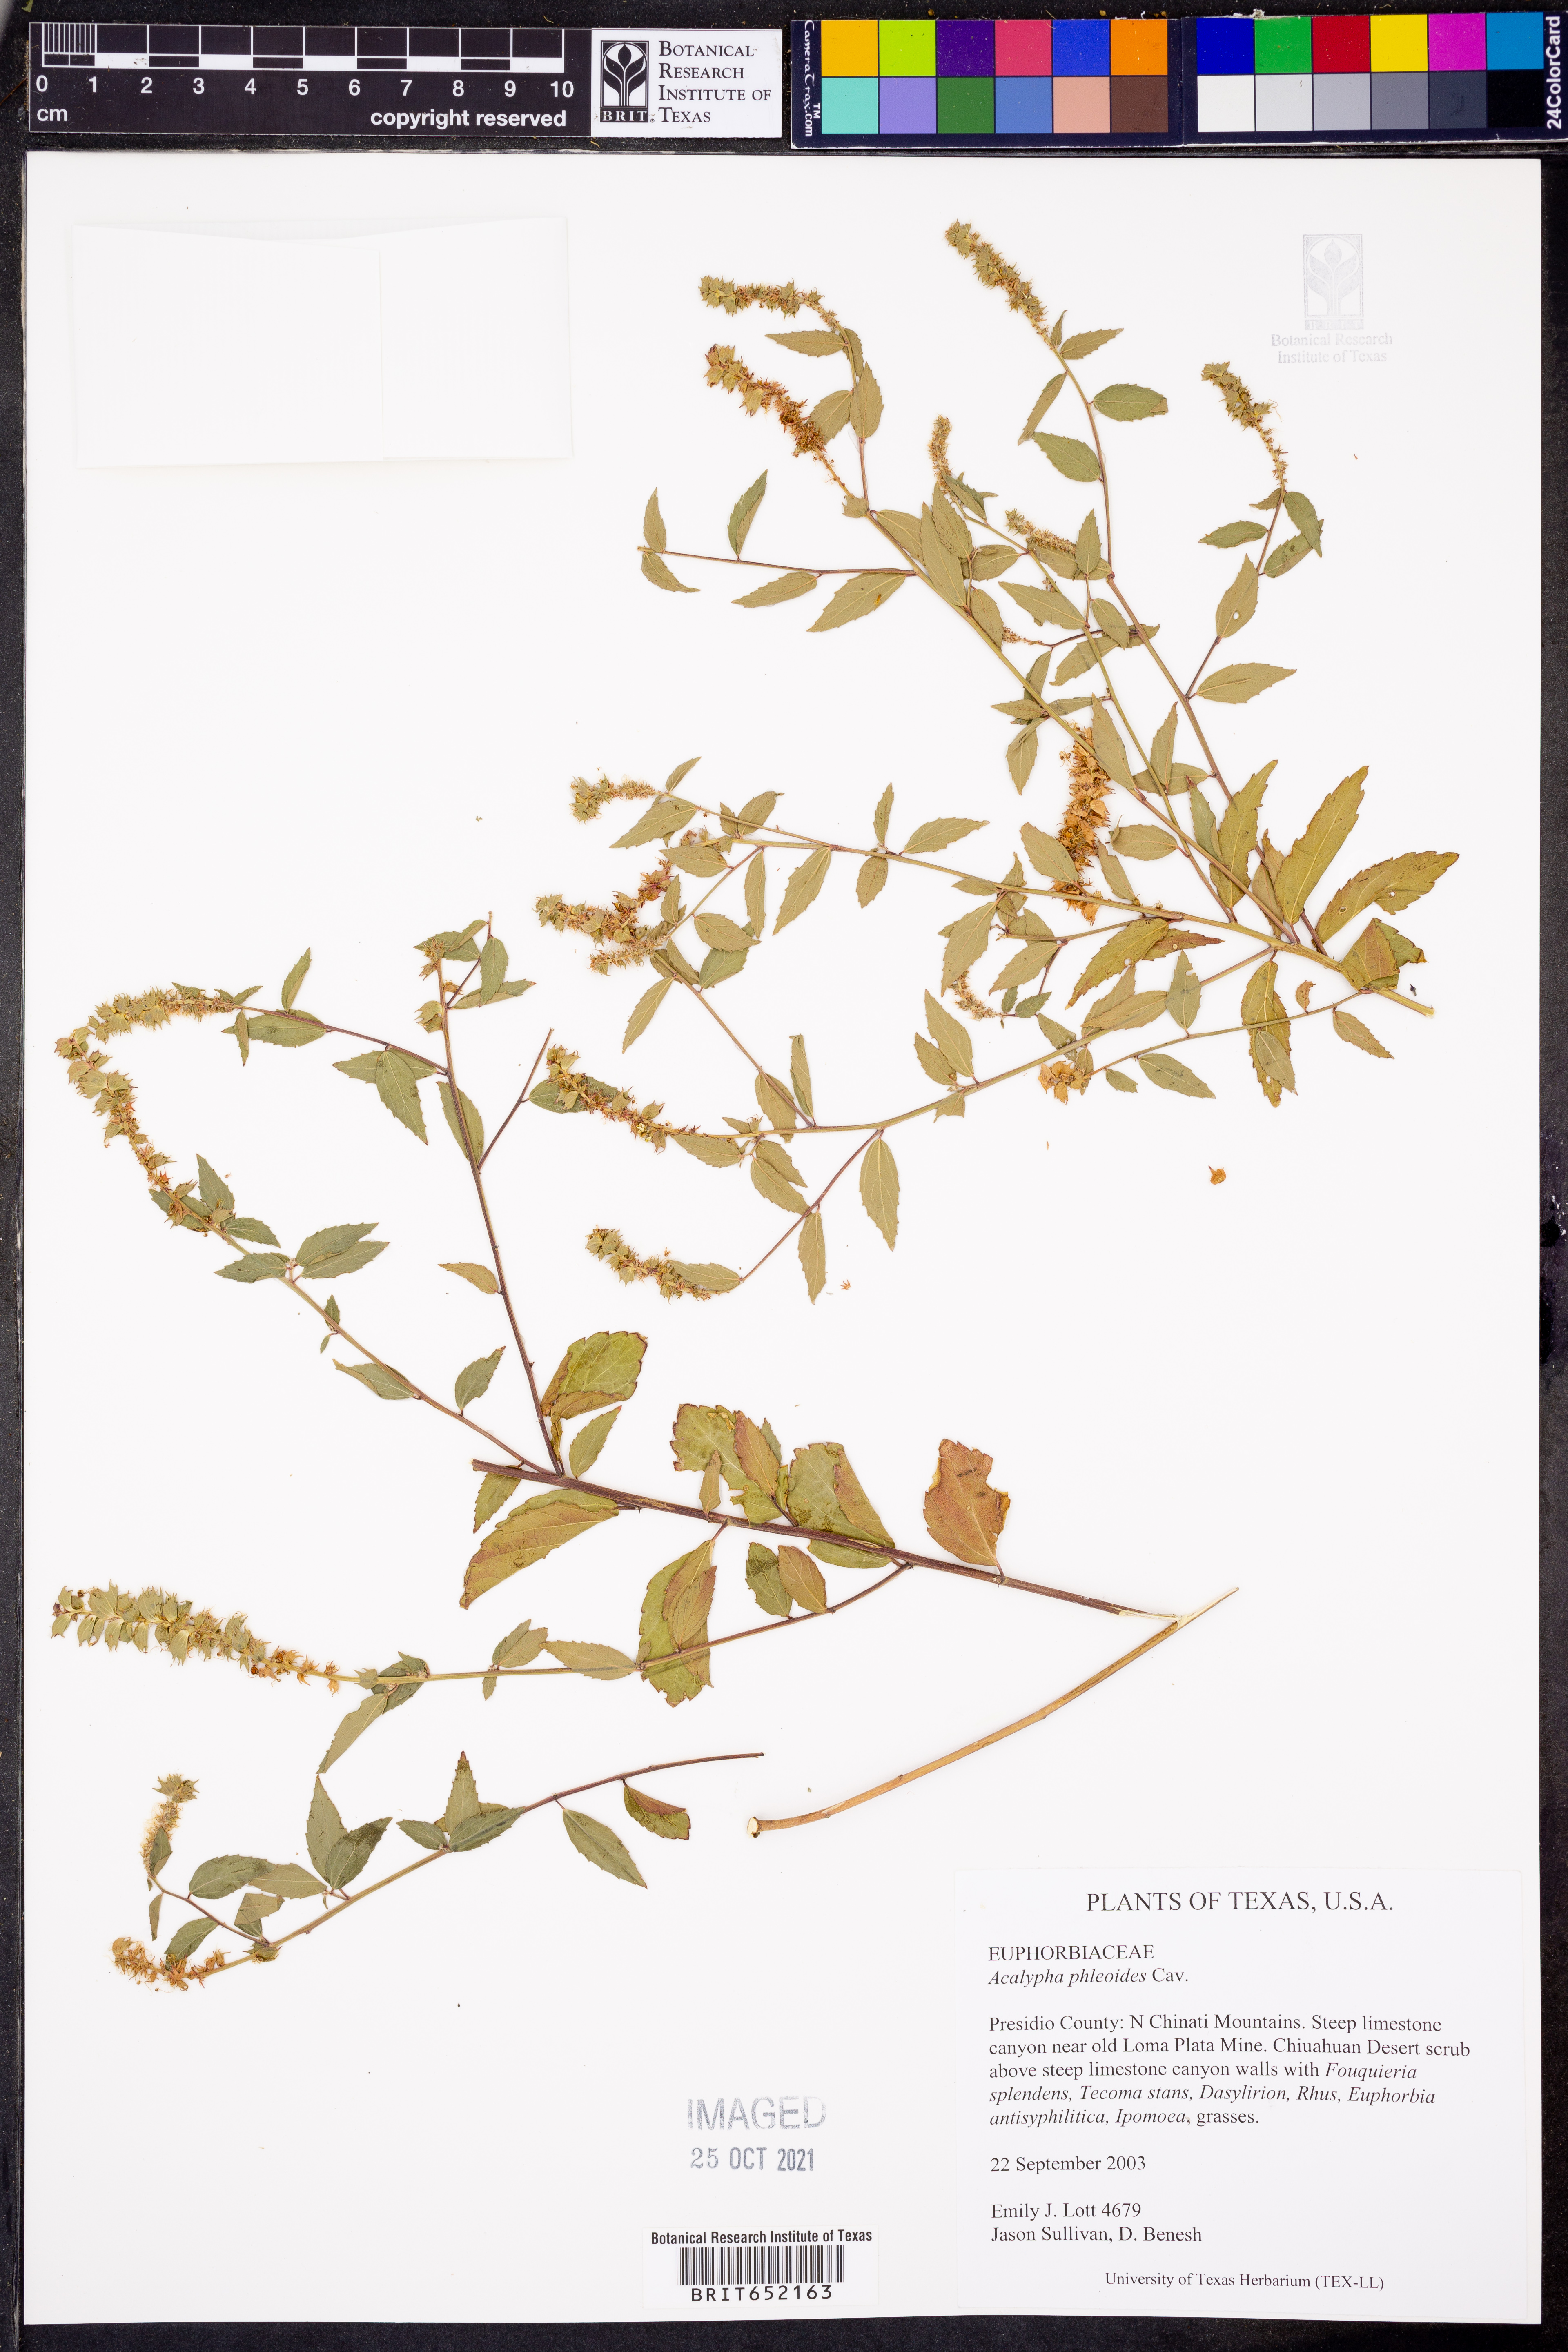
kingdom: Plantae
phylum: Tracheophyta
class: Magnoliopsida
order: Malpighiales
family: Euphorbiaceae
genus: Acalypha
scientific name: Acalypha phleoides
